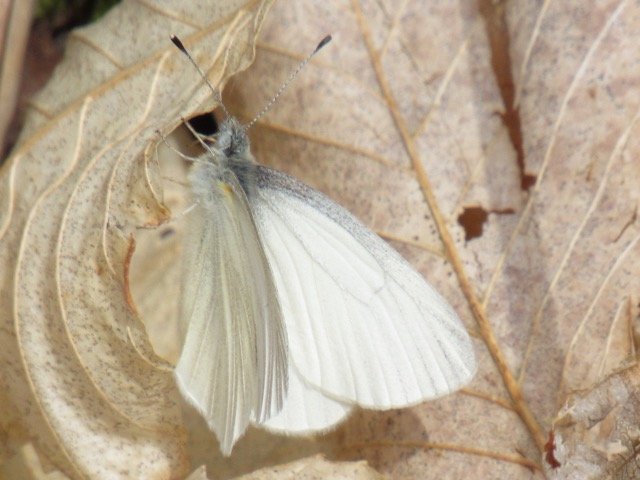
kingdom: Animalia
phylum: Arthropoda
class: Insecta
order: Lepidoptera
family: Pieridae
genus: Pieris
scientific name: Pieris
